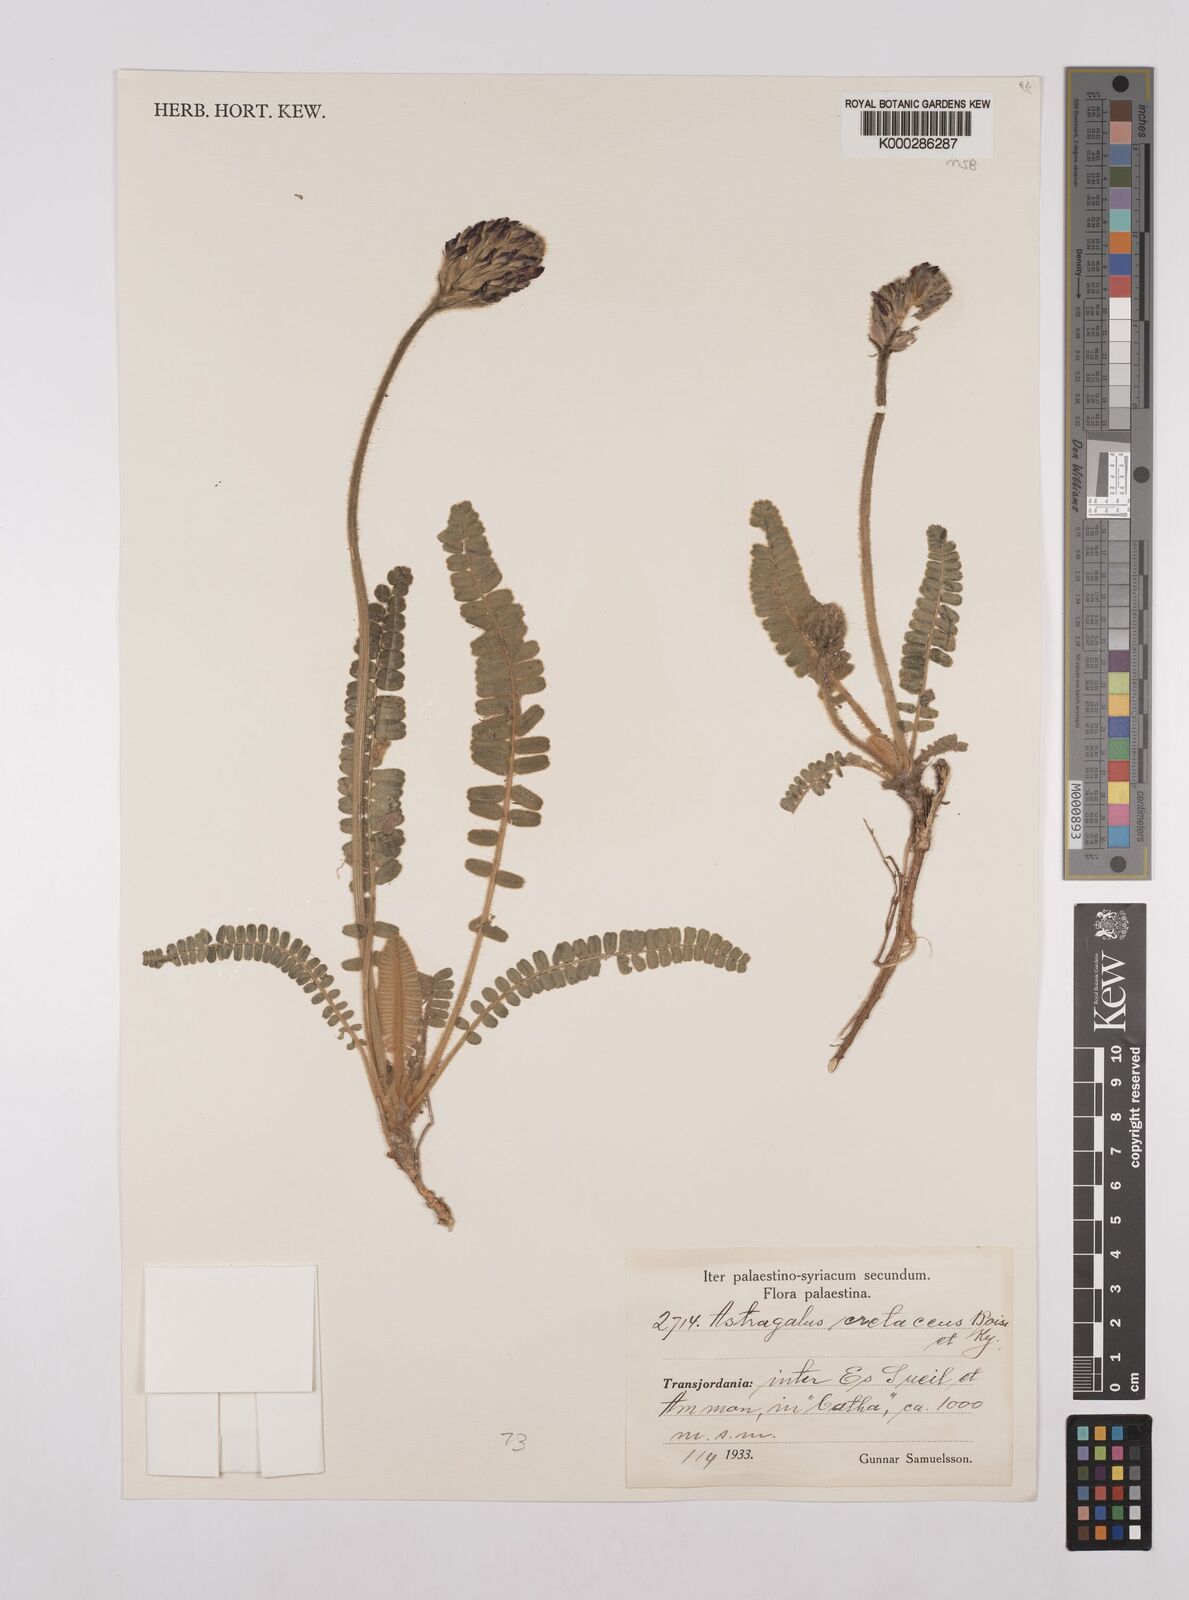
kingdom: Plantae
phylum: Tracheophyta
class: Magnoliopsida
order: Fabales
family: Fabaceae
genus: Astragalus
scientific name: Astragalus cretaceus
